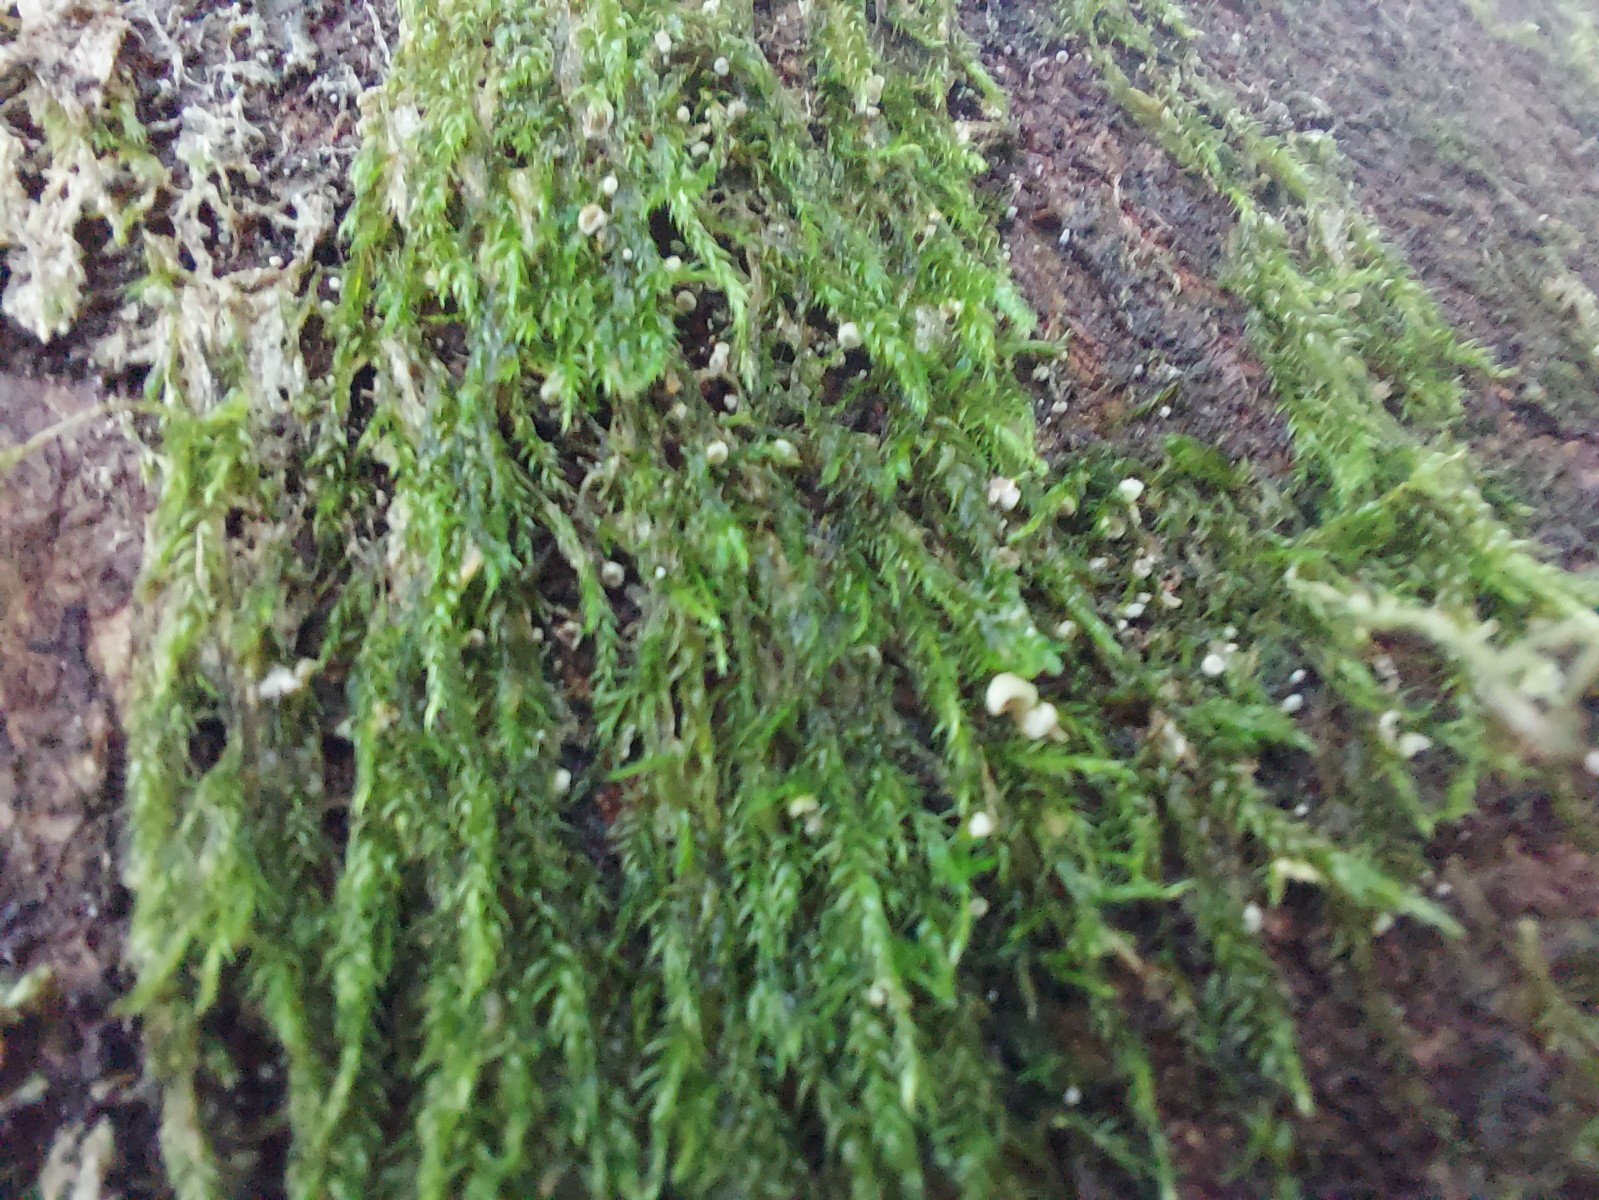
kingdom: Fungi
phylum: Basidiomycota
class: Agaricomycetes
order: Agaricales
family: Chromocyphellaceae
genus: Chromocyphella
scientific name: Chromocyphella muscicola
